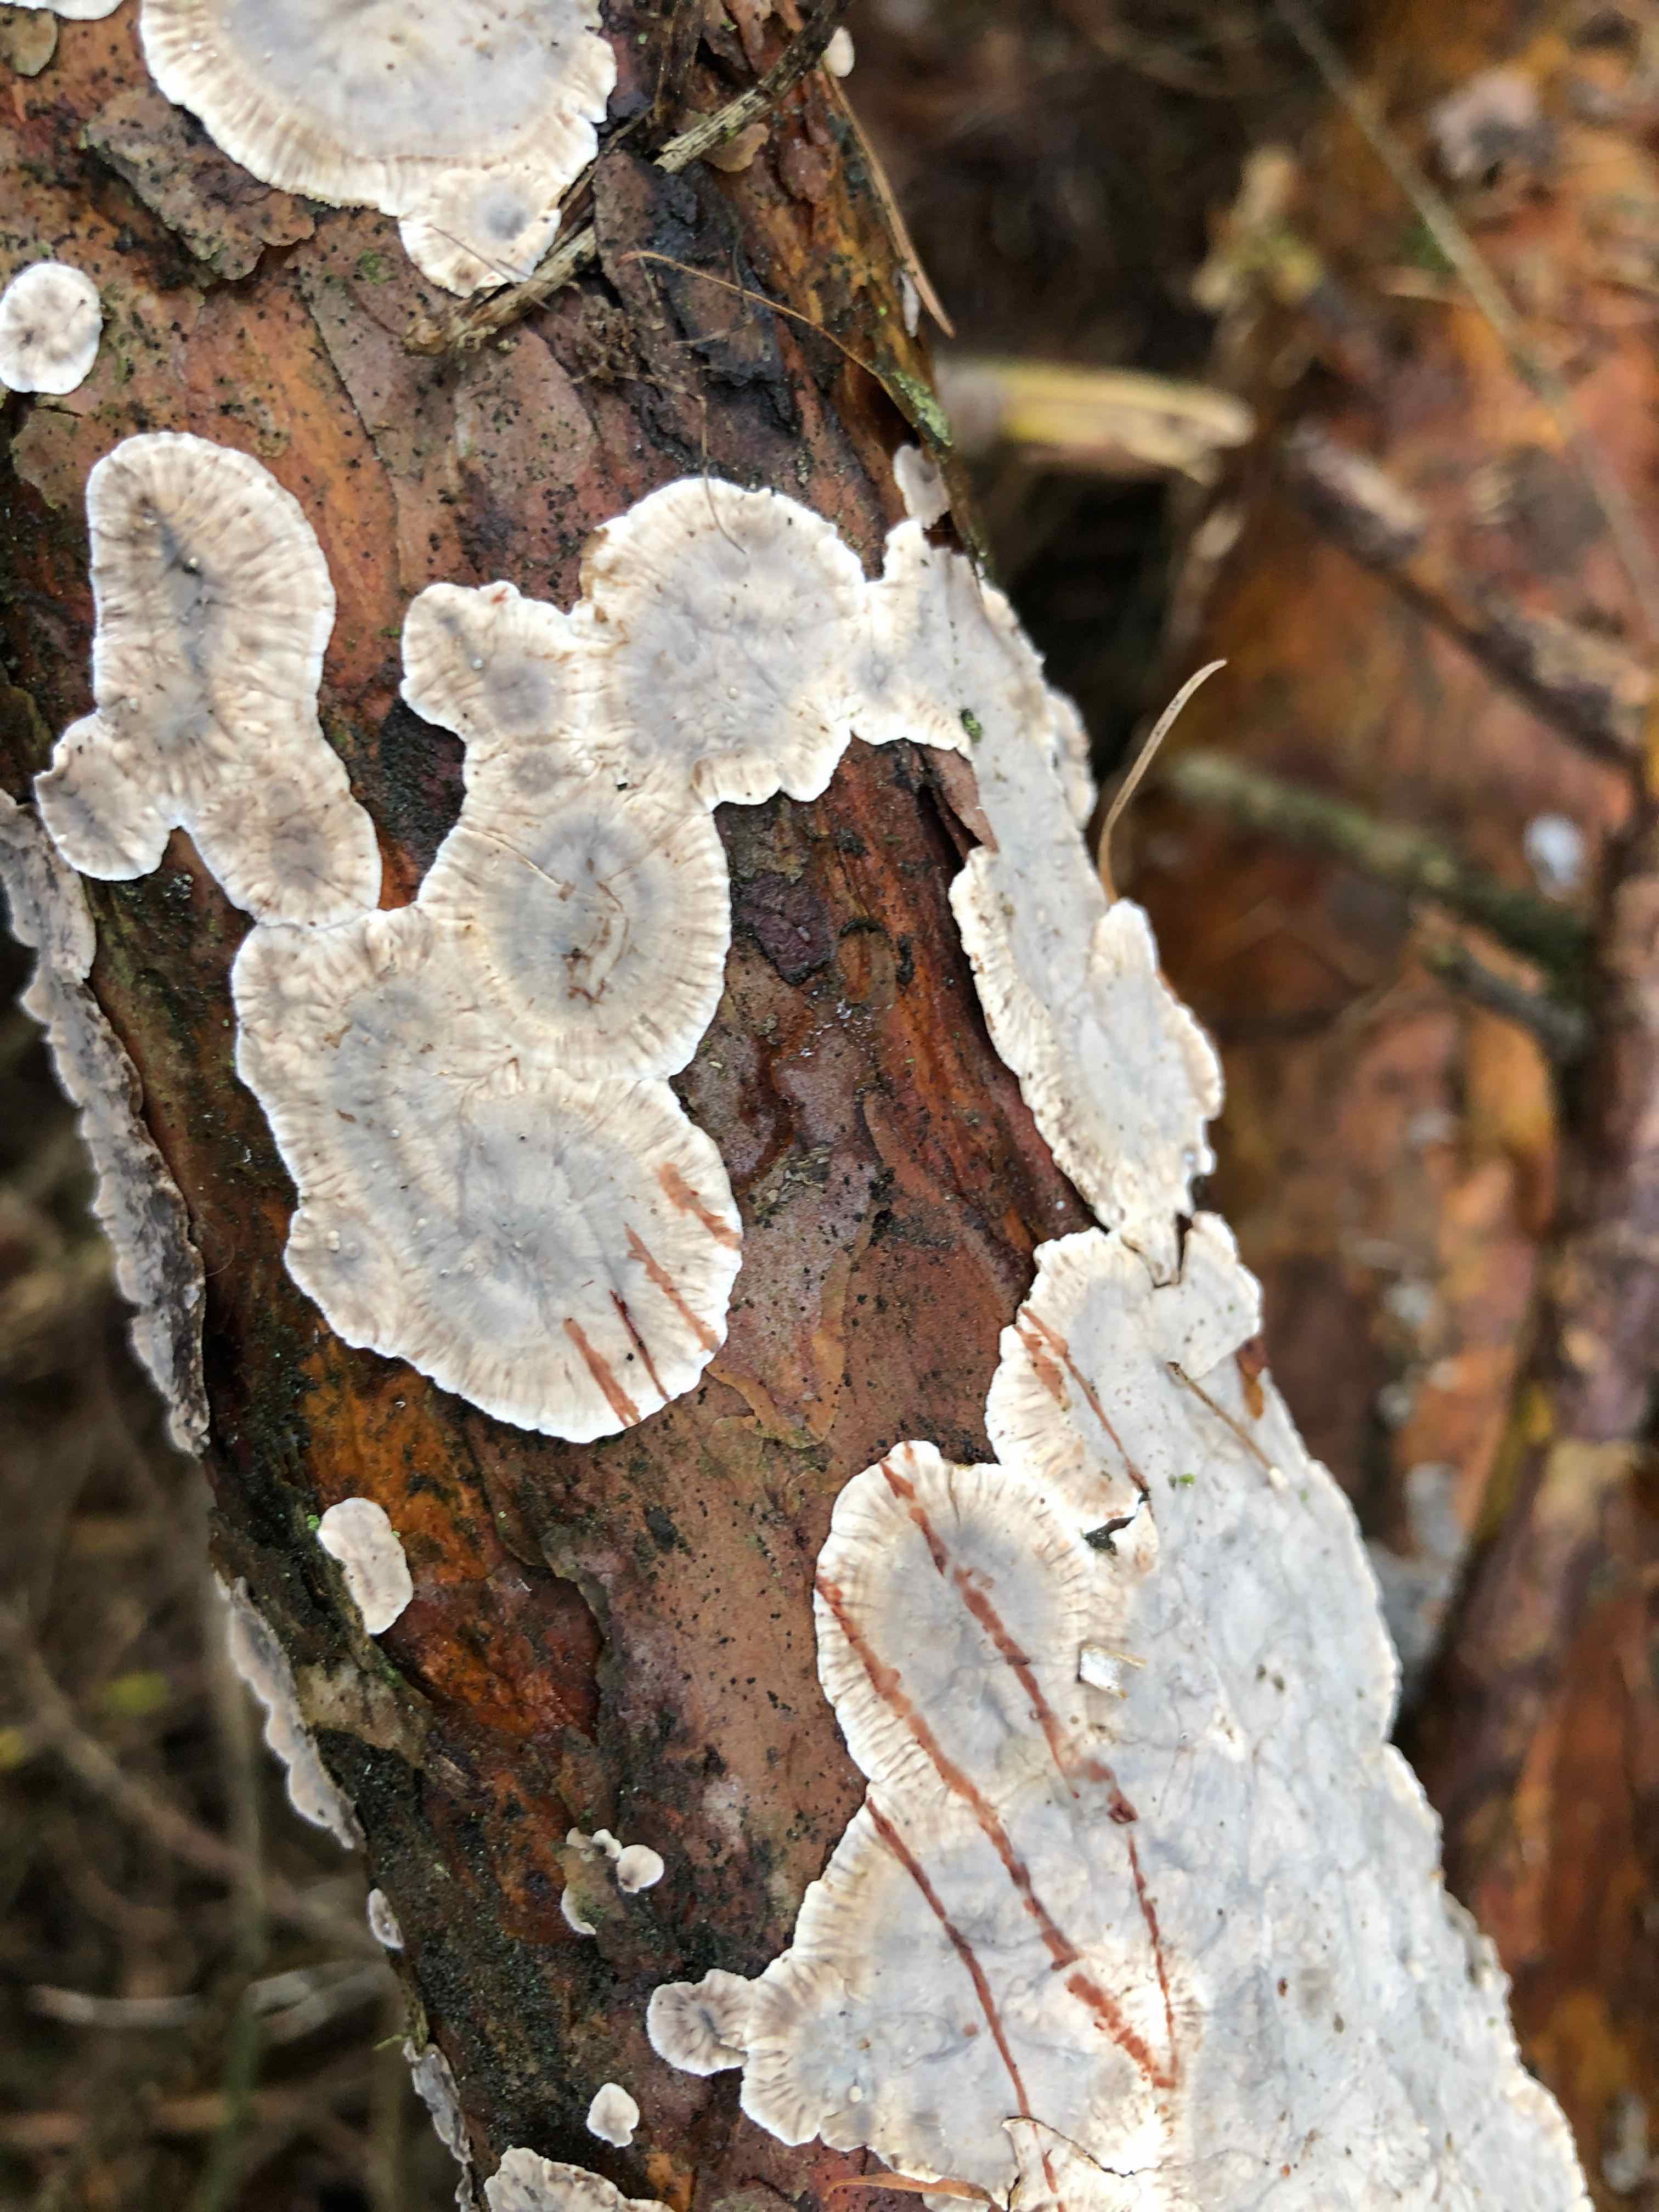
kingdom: Fungi
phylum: Basidiomycota
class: Agaricomycetes
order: Russulales
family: Stereaceae
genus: Stereum
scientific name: Stereum sanguinolentum
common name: blødende lædersvamp
